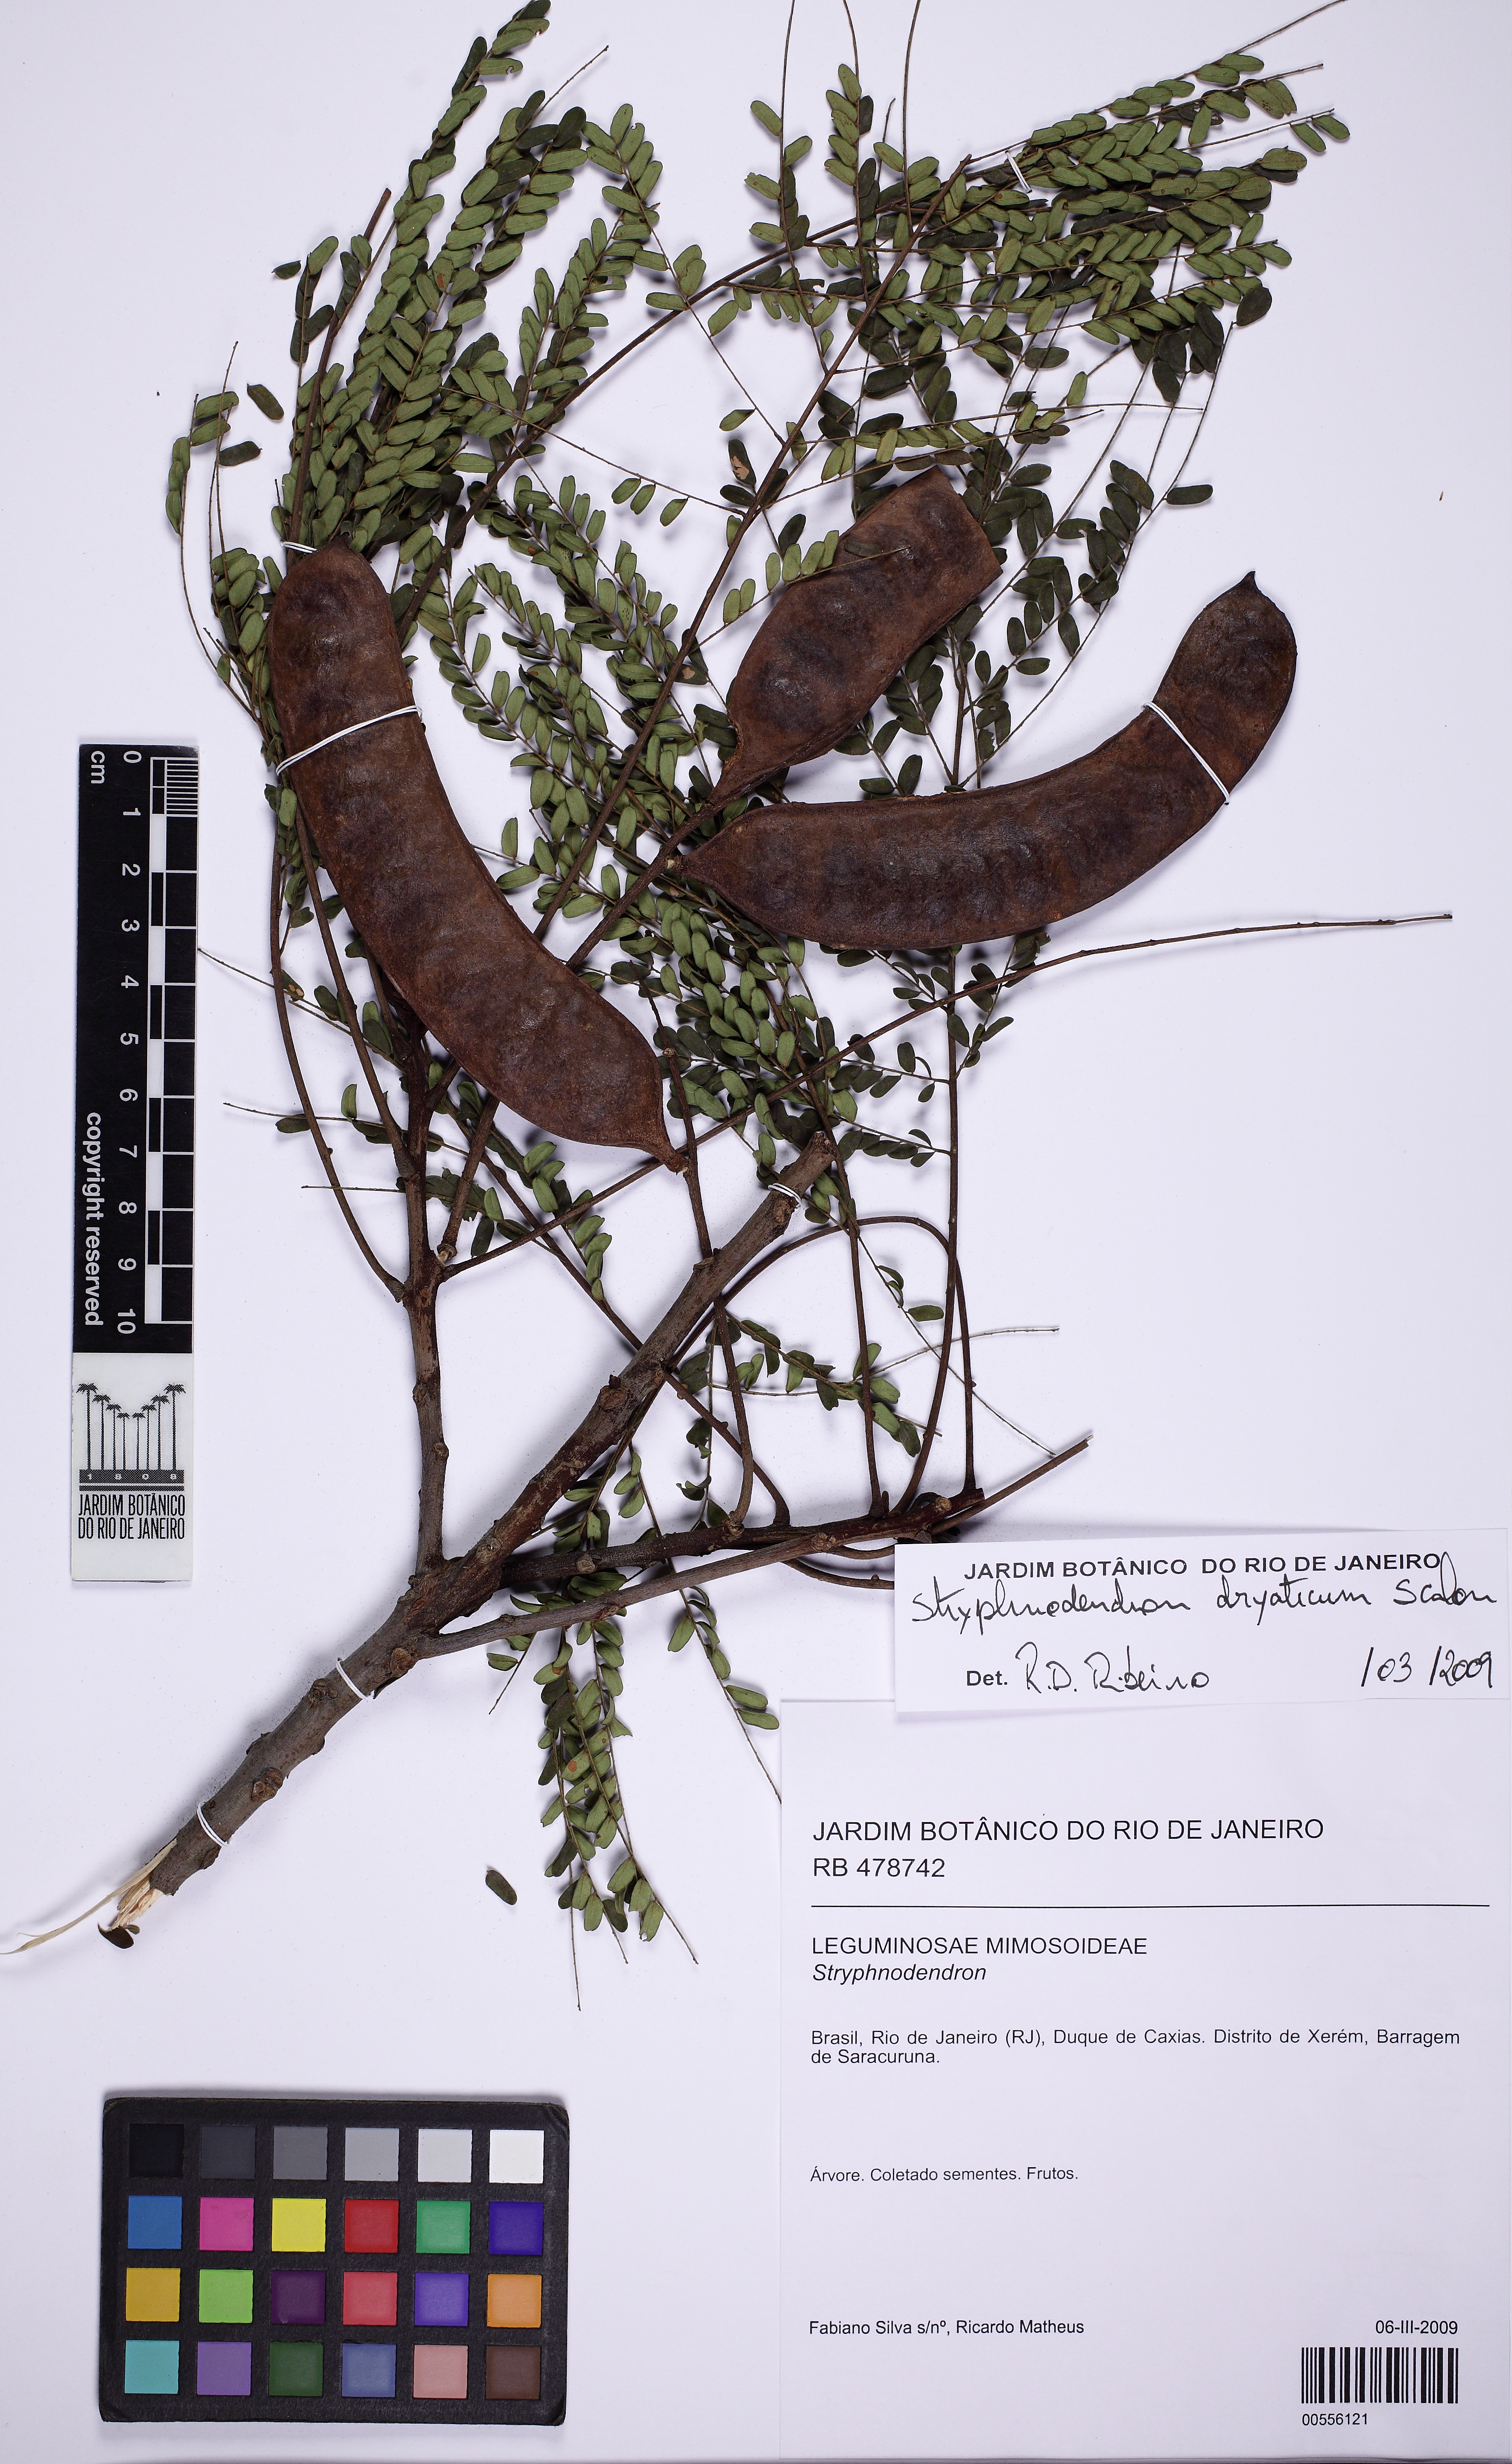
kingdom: Plantae
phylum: Tracheophyta
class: Magnoliopsida
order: Fabales
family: Fabaceae
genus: Stryphnodendron
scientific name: Stryphnodendron dryaticum
